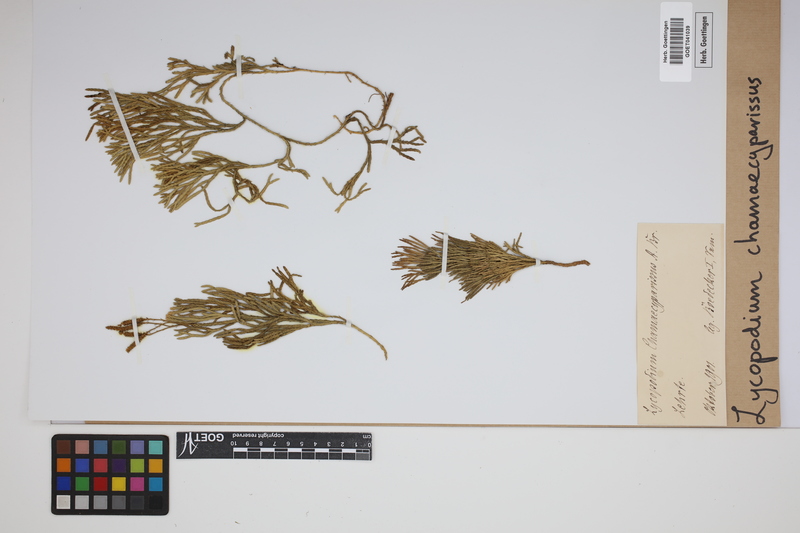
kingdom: Plantae
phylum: Tracheophyta
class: Lycopodiopsida
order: Lycopodiales
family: Lycopodiaceae
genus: Diphasiastrum
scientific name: Diphasiastrum tristachyum
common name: Blue ground-cedar
